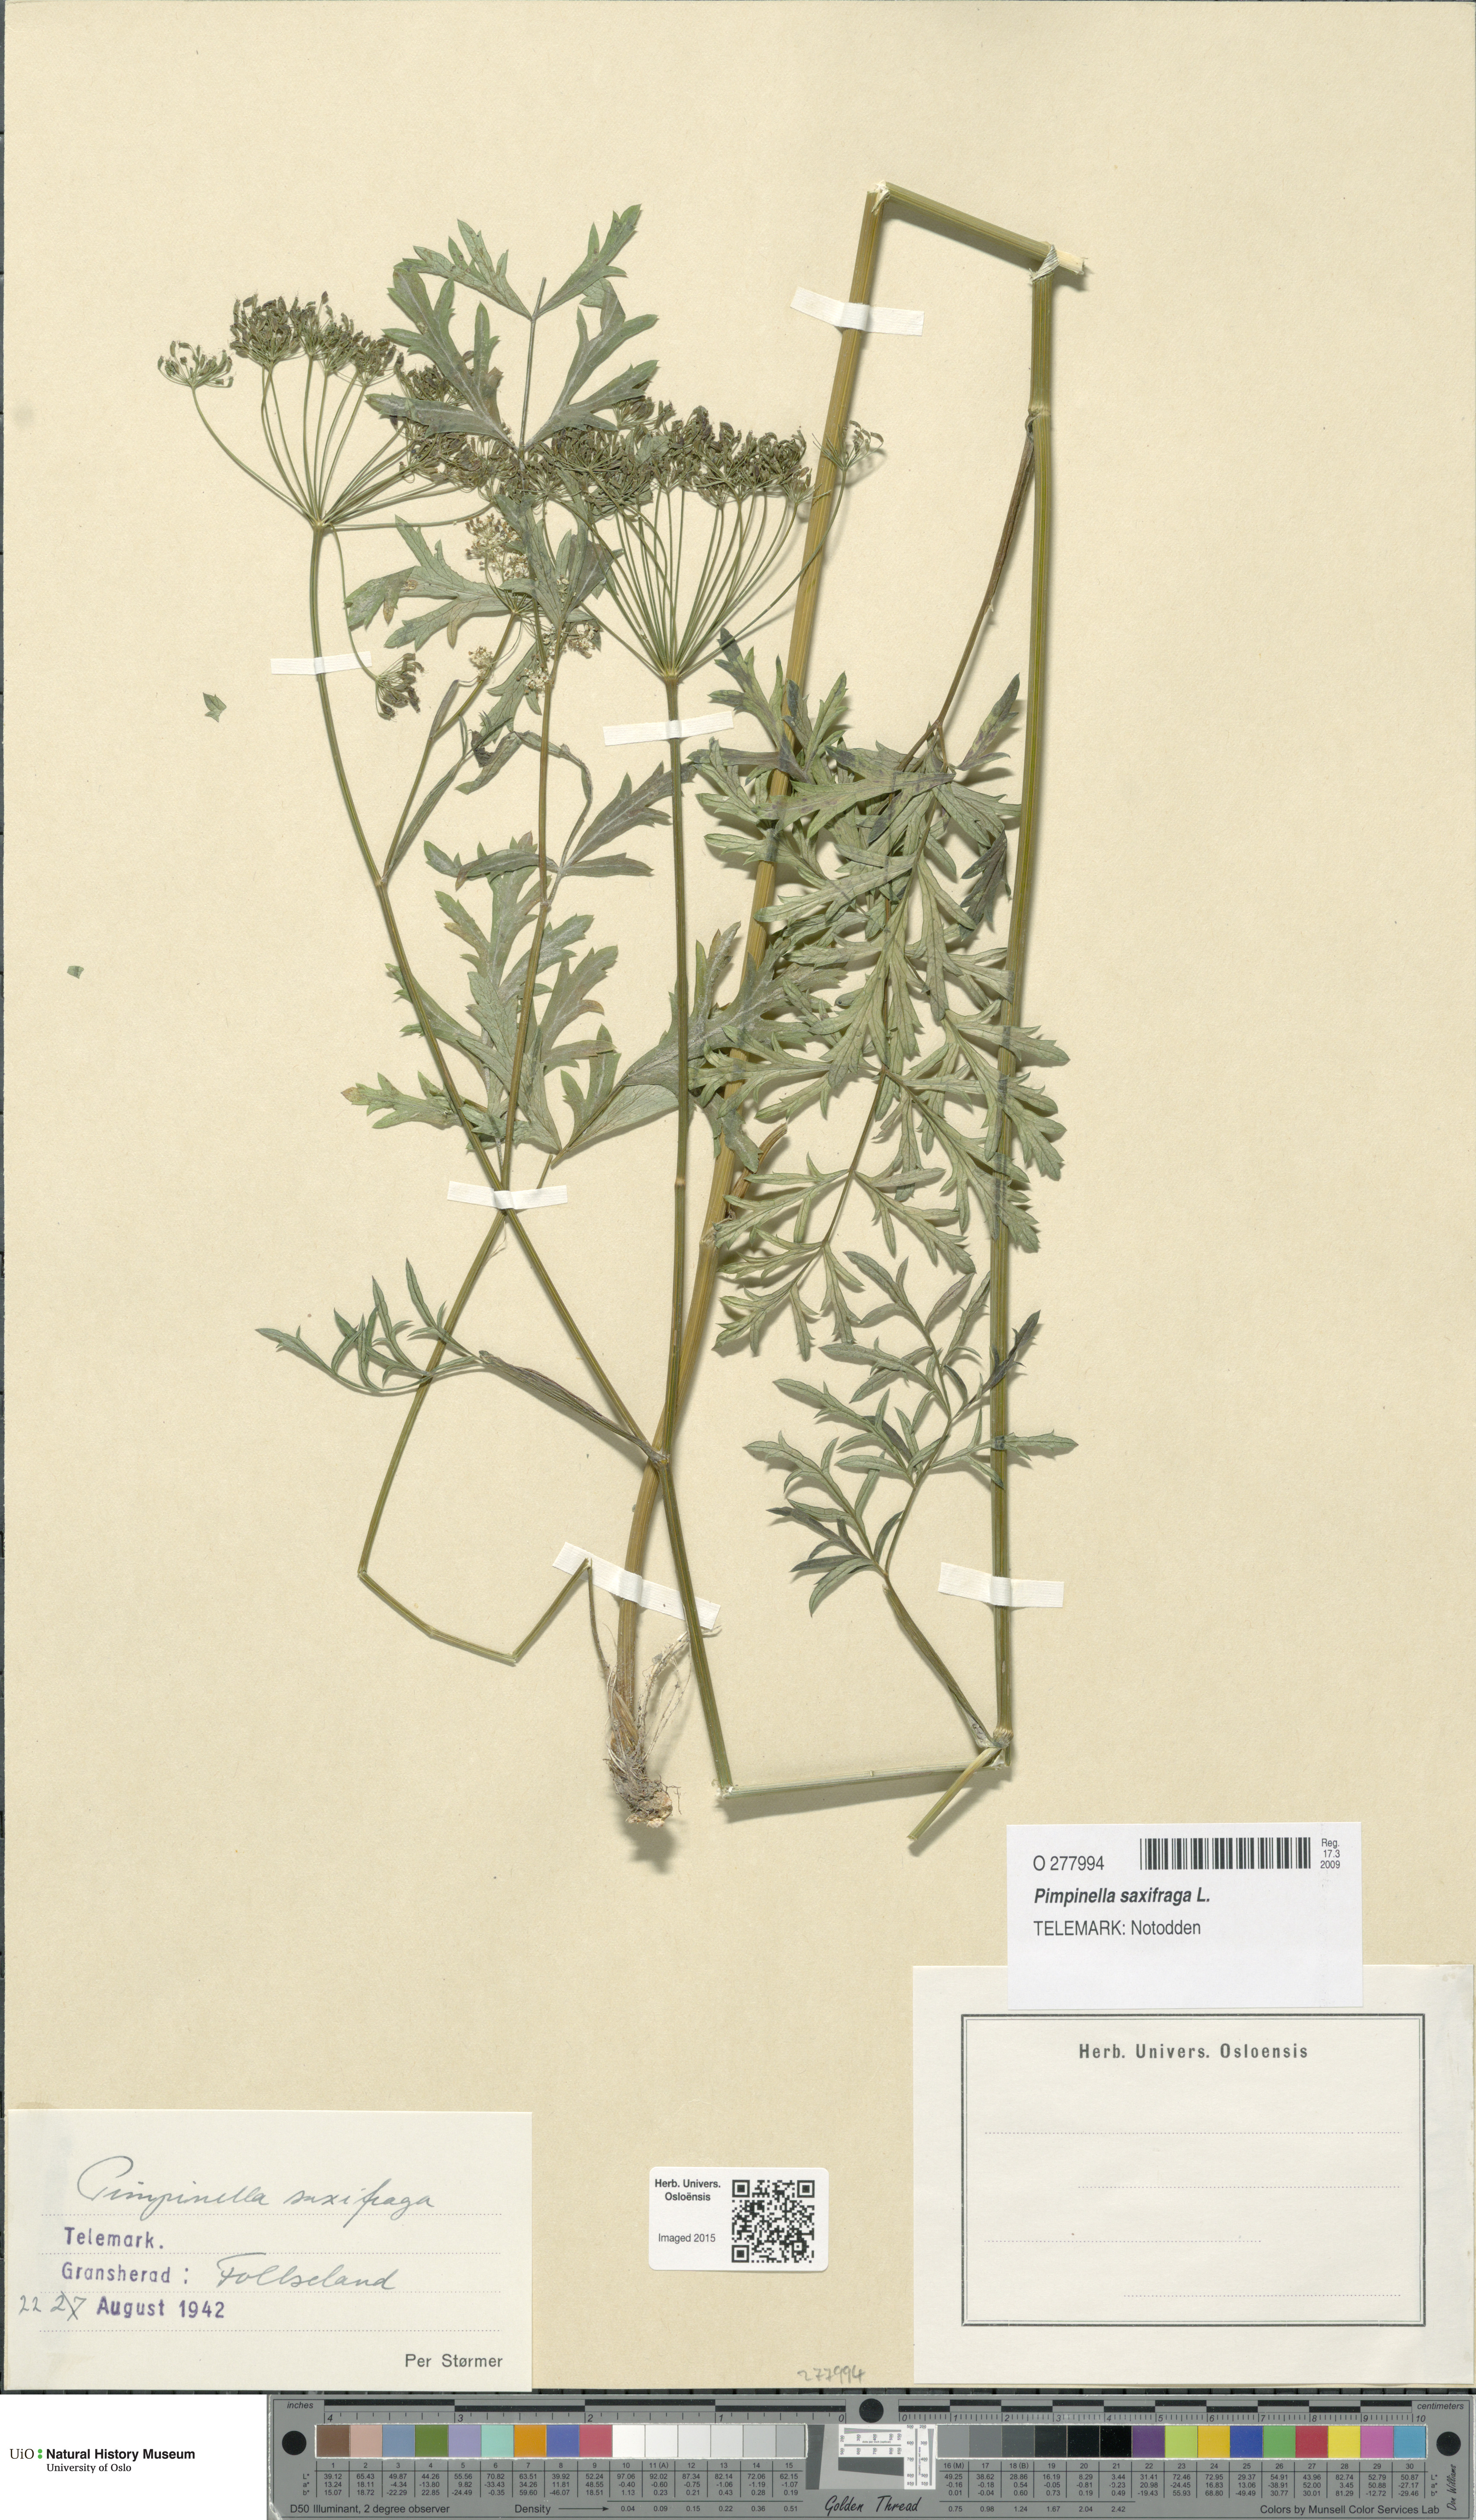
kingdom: Plantae
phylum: Tracheophyta
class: Magnoliopsida
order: Apiales
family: Apiaceae
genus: Pimpinella
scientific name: Pimpinella saxifraga
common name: Burnet-saxifrage
